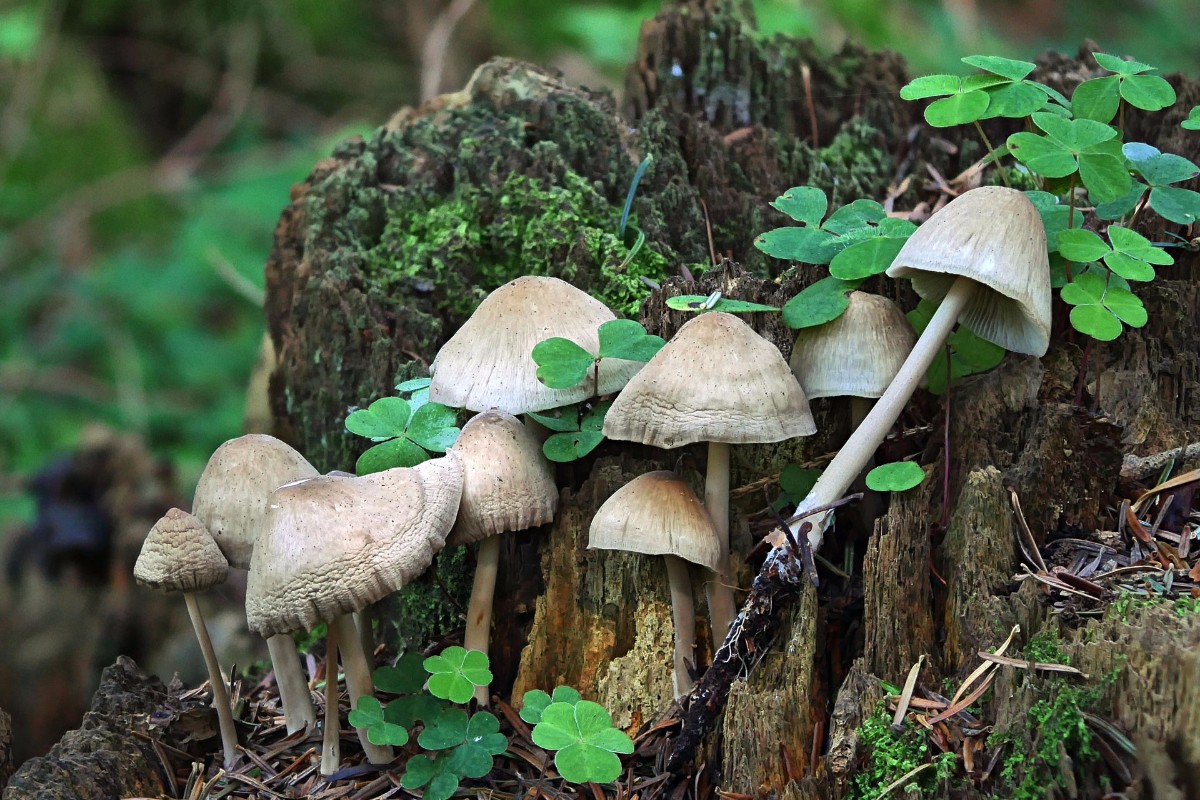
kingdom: Fungi
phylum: Basidiomycota
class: Agaricomycetes
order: Agaricales
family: Mycenaceae
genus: Mycena
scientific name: Mycena galericulata
